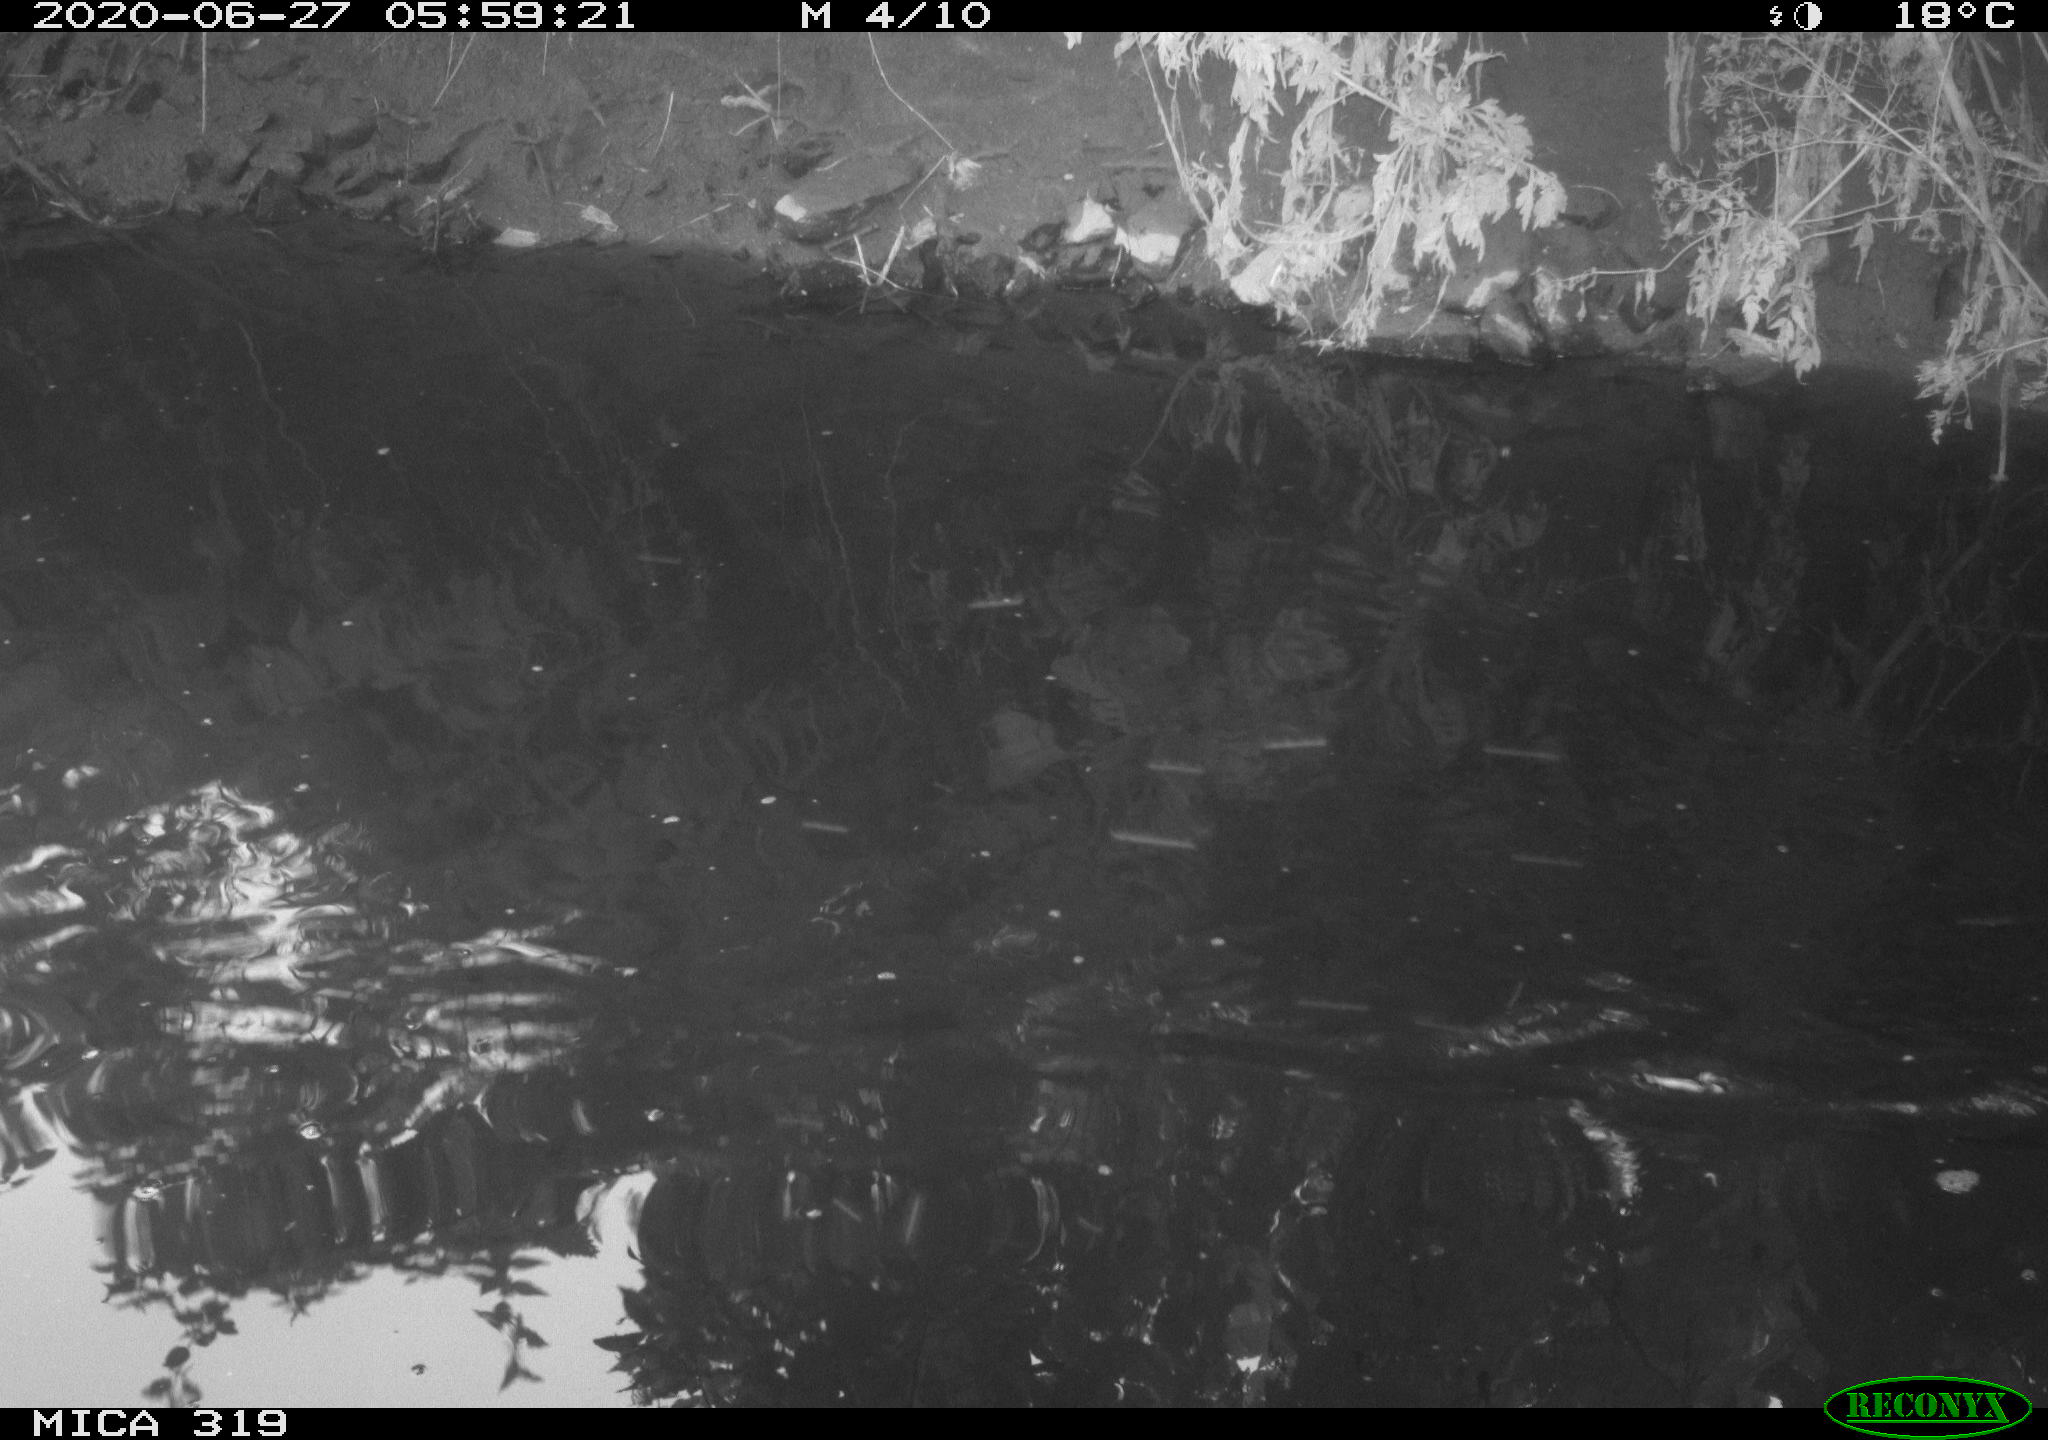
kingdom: Animalia
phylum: Chordata
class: Aves
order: Gruiformes
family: Rallidae
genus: Gallinula
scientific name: Gallinula chloropus
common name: Common moorhen
